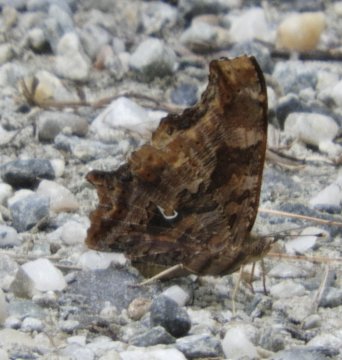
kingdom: Animalia
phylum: Arthropoda
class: Insecta
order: Lepidoptera
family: Nymphalidae
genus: Polygonia
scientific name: Polygonia comma
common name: Eastern Comma
